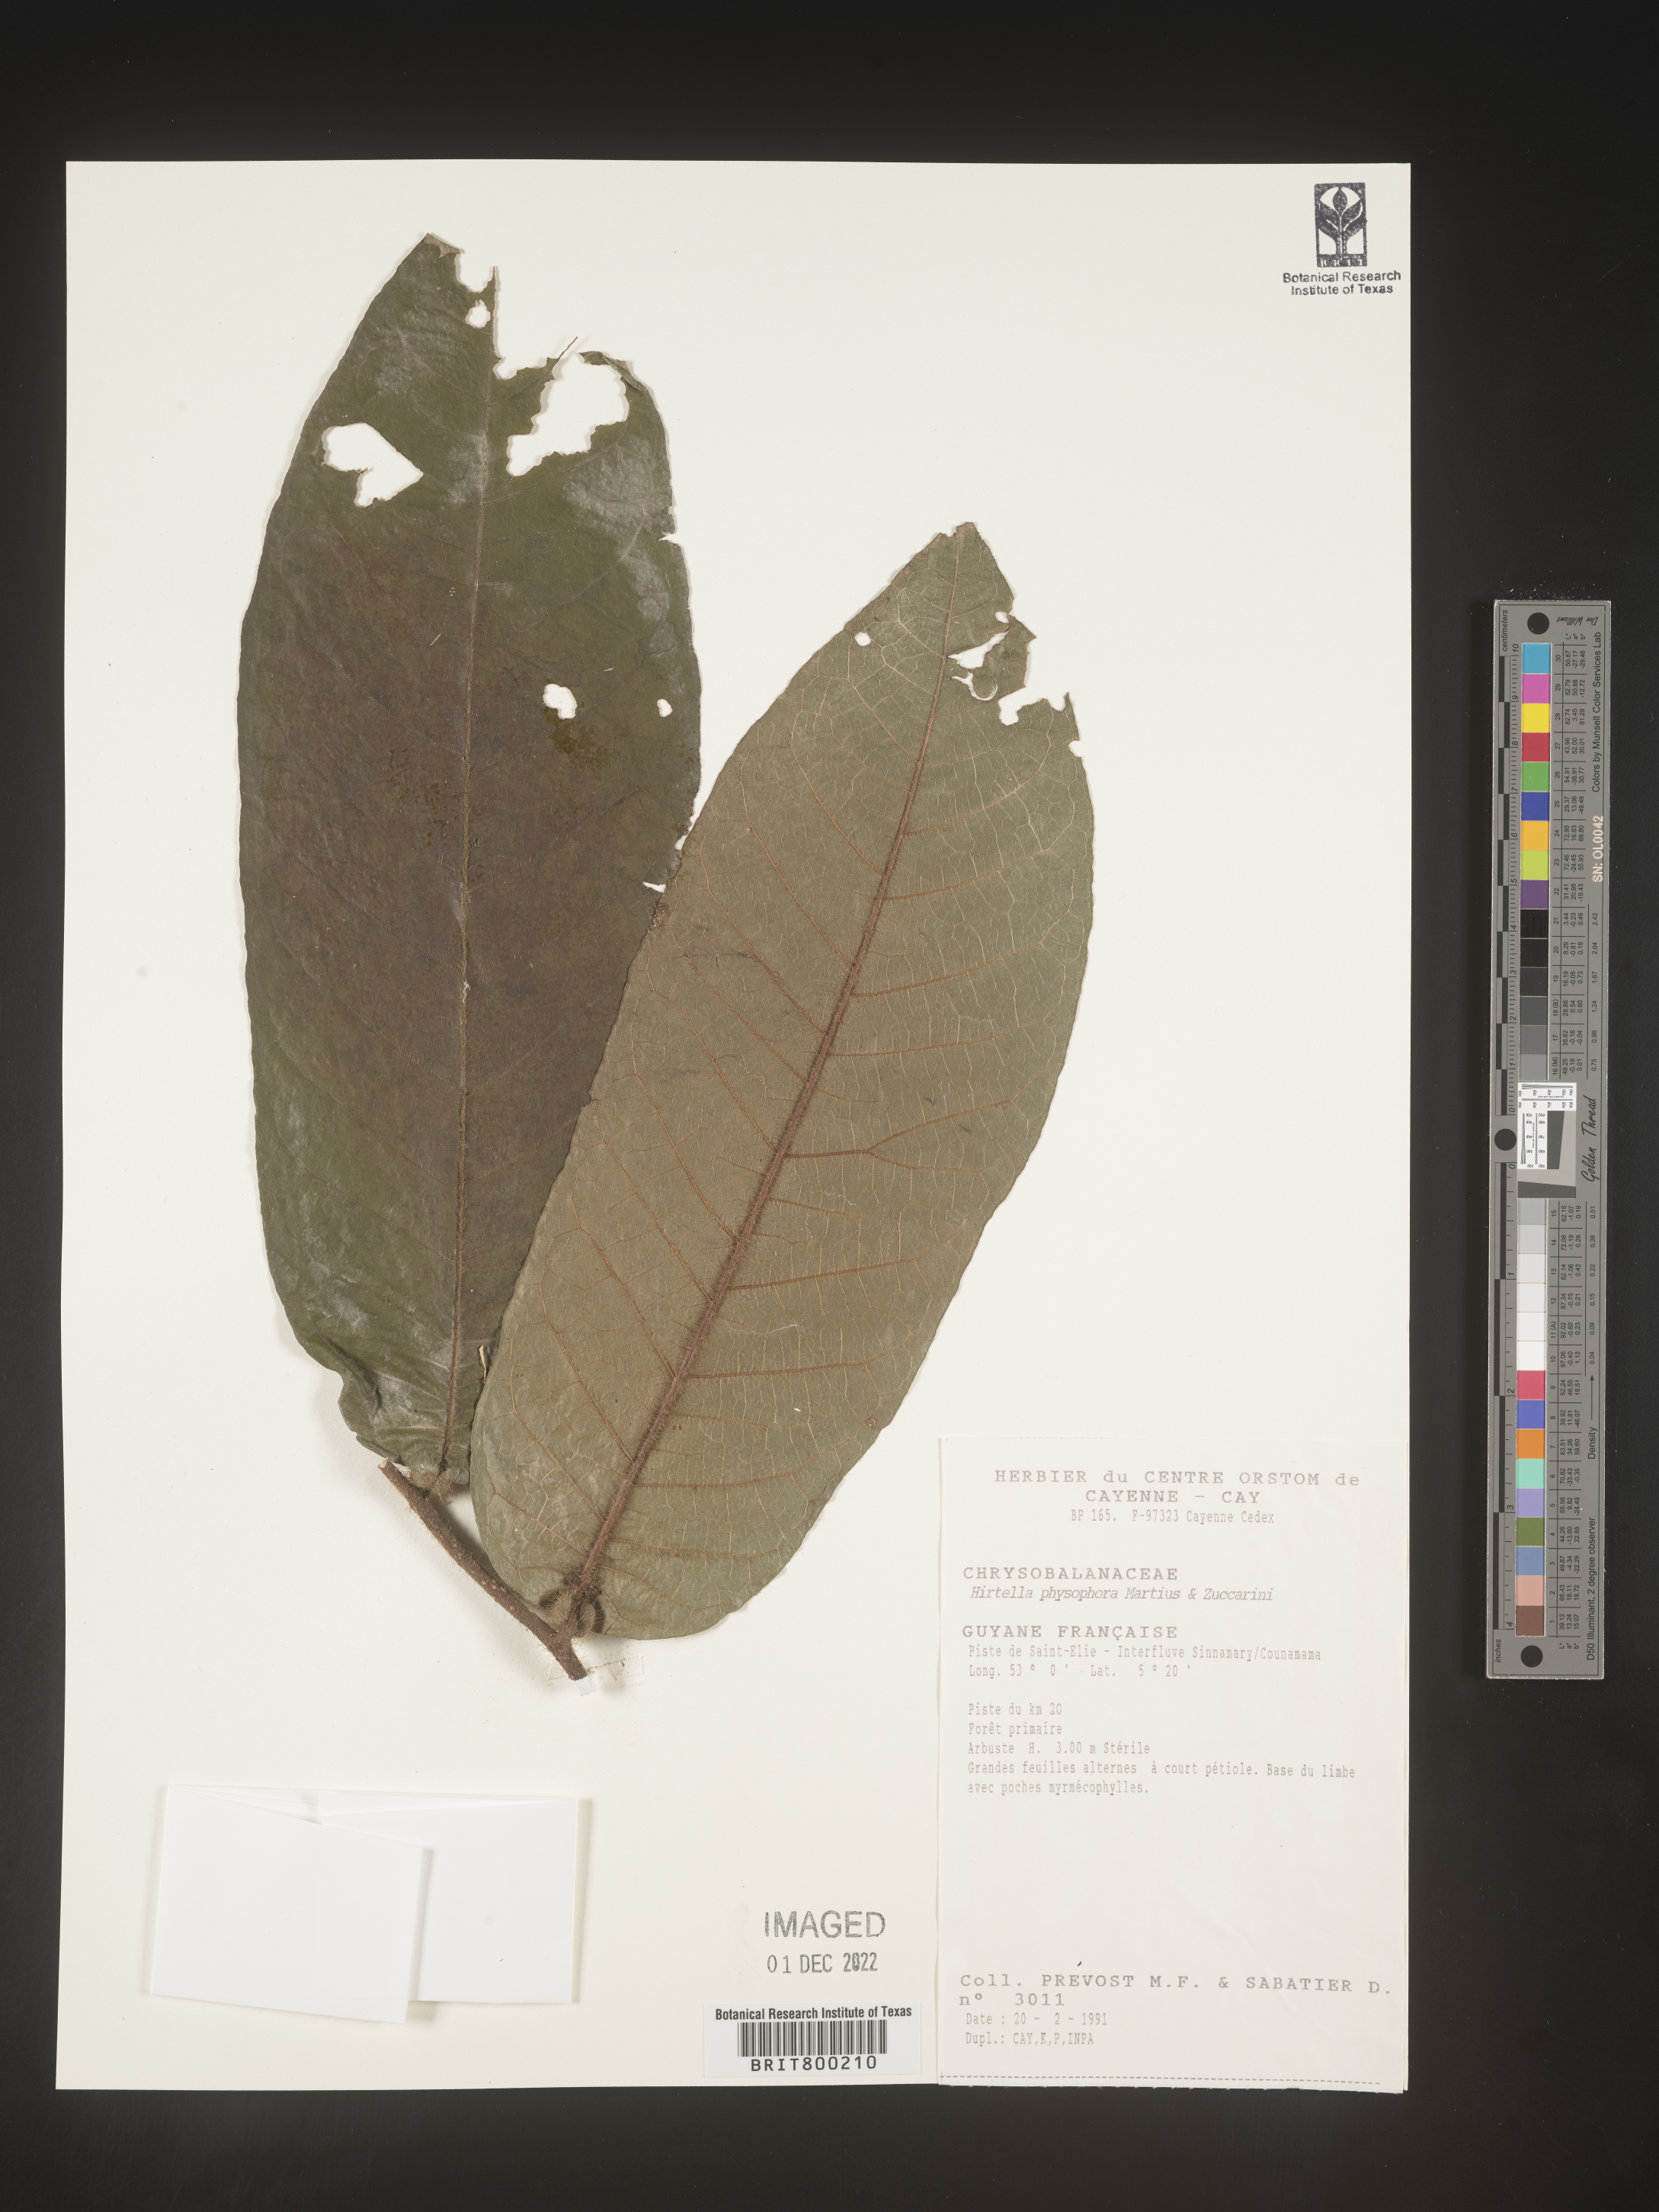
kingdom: Plantae
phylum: Tracheophyta
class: Magnoliopsida
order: Malpighiales
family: Chrysobalanaceae
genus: Hirtella
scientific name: Hirtella
